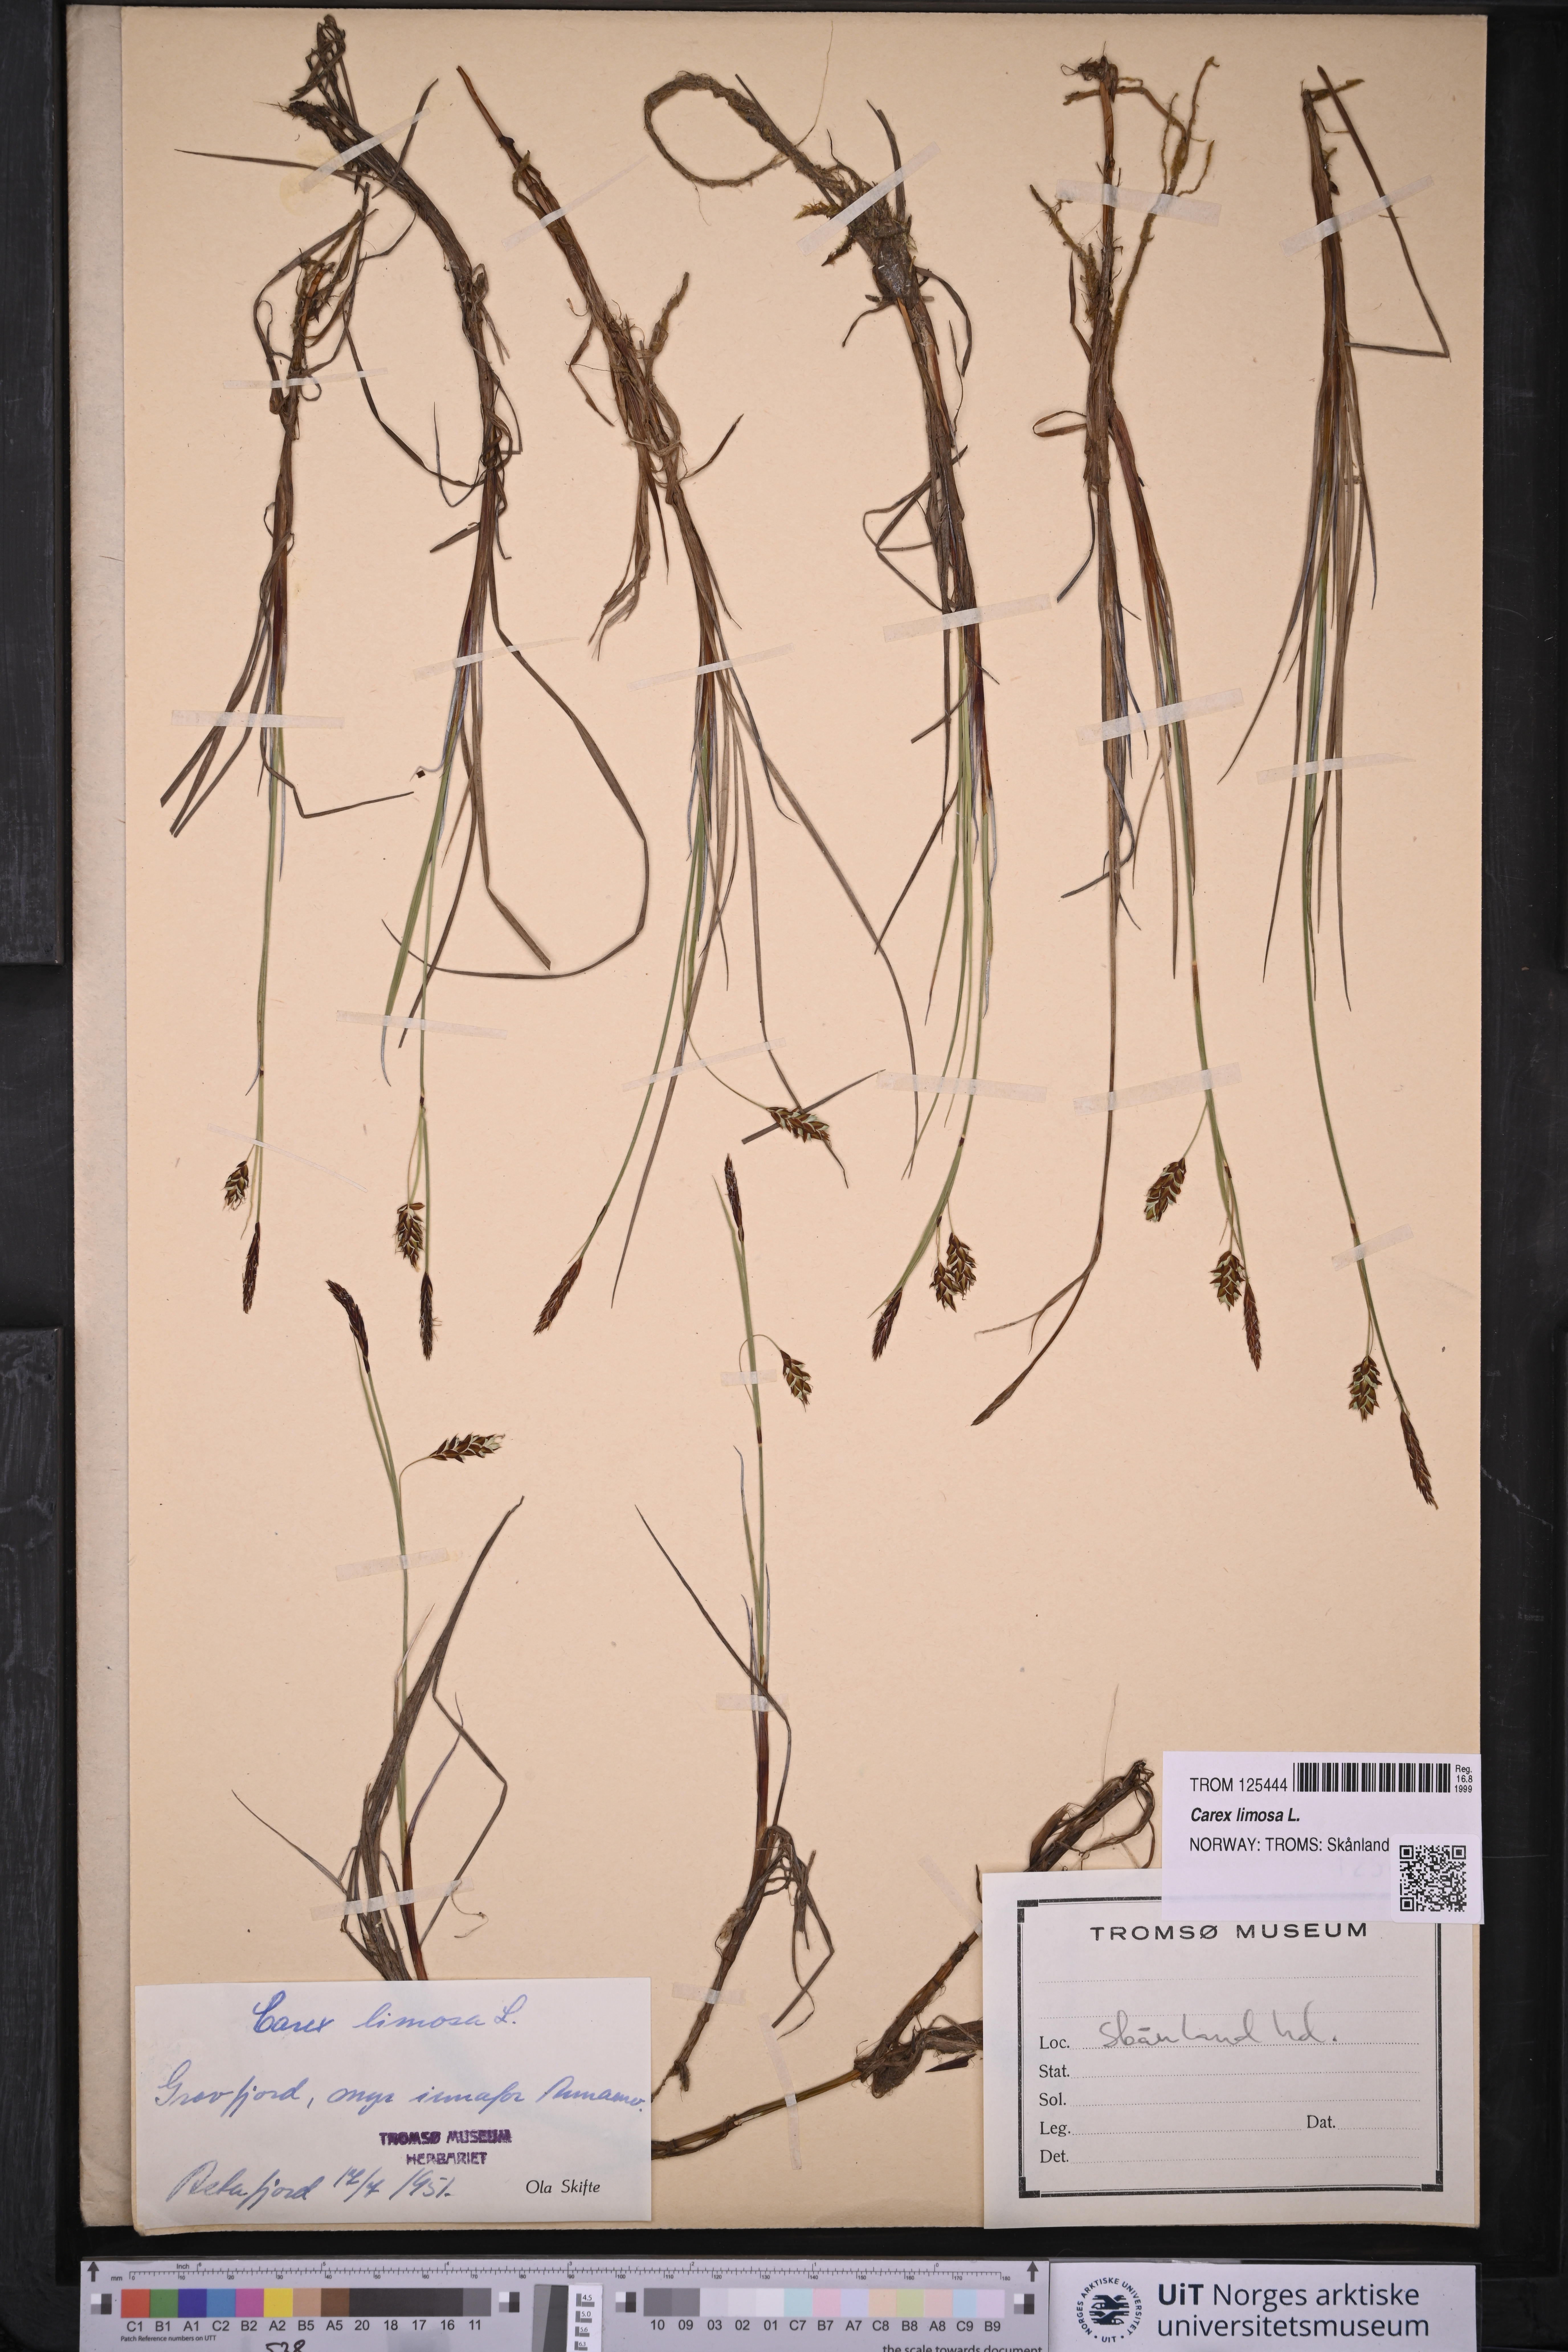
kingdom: Plantae
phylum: Tracheophyta
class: Liliopsida
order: Poales
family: Cyperaceae
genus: Carex
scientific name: Carex limosa
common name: Bog sedge
